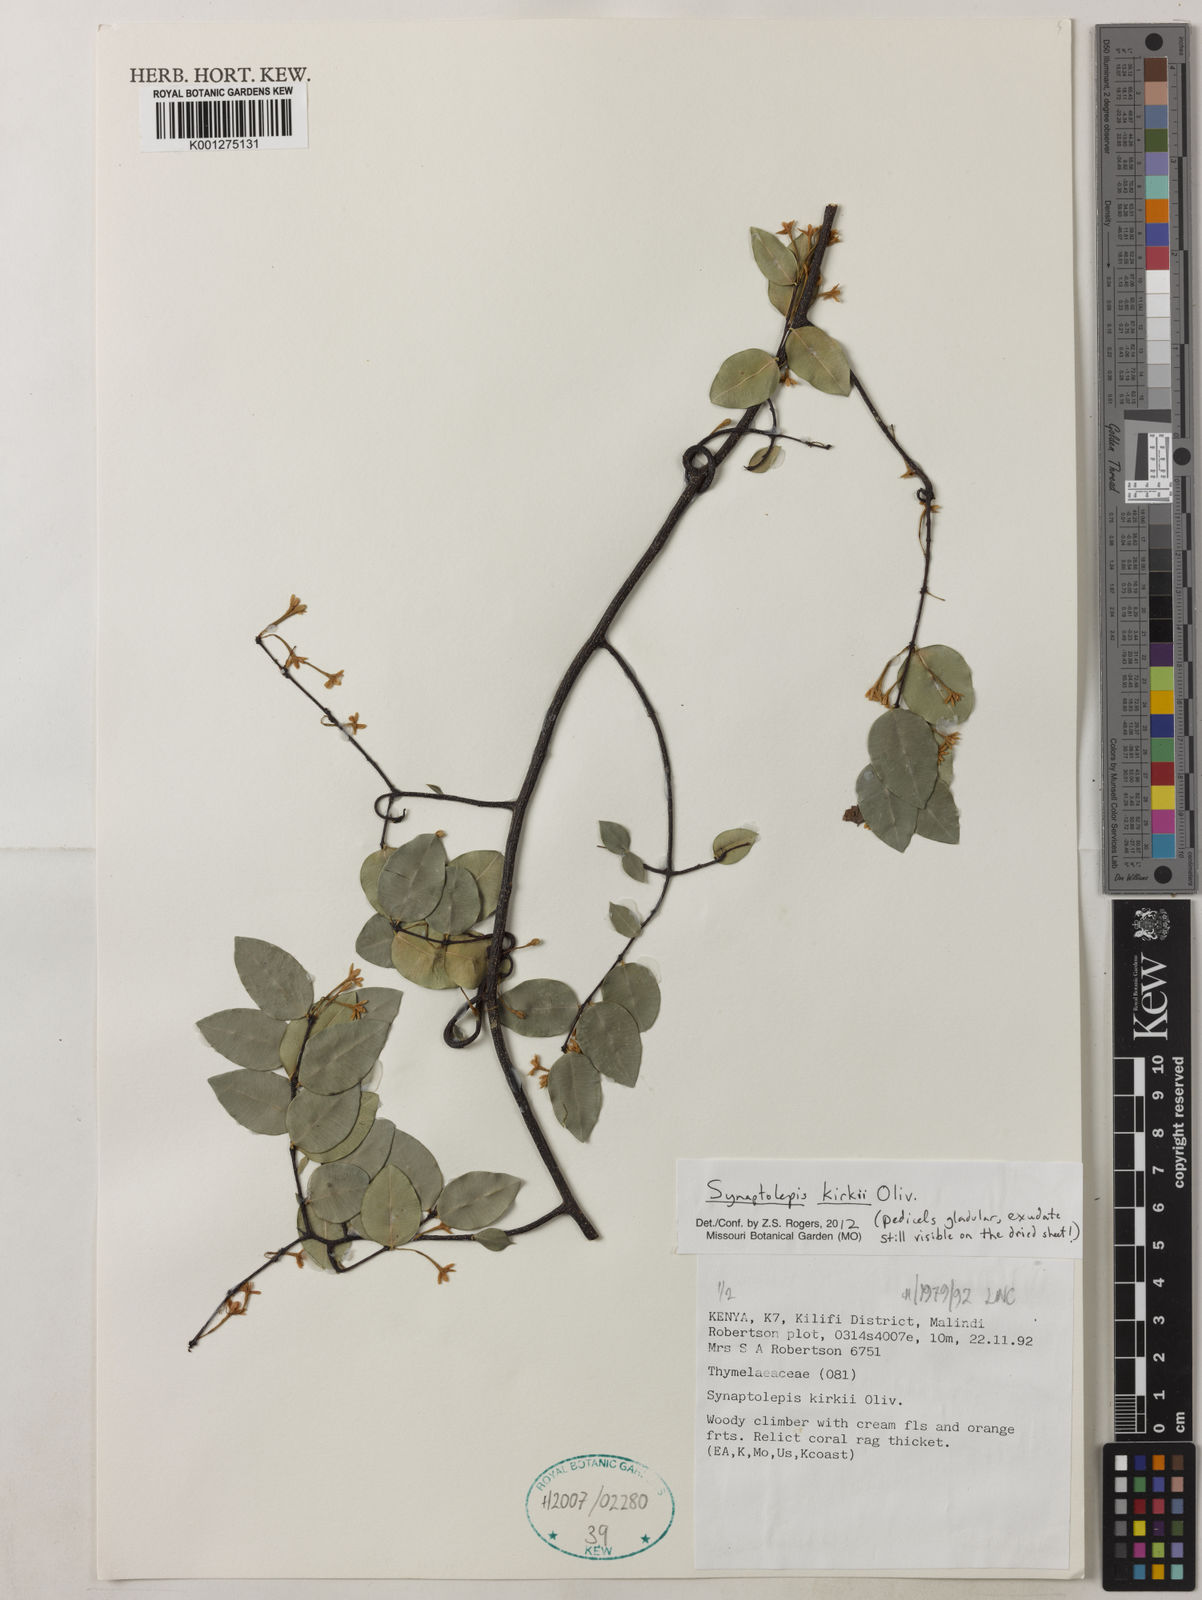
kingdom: Plantae
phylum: Tracheophyta
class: Magnoliopsida
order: Malvales
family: Thymelaeaceae
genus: Synaptolepis
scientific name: Synaptolepis kirkii
